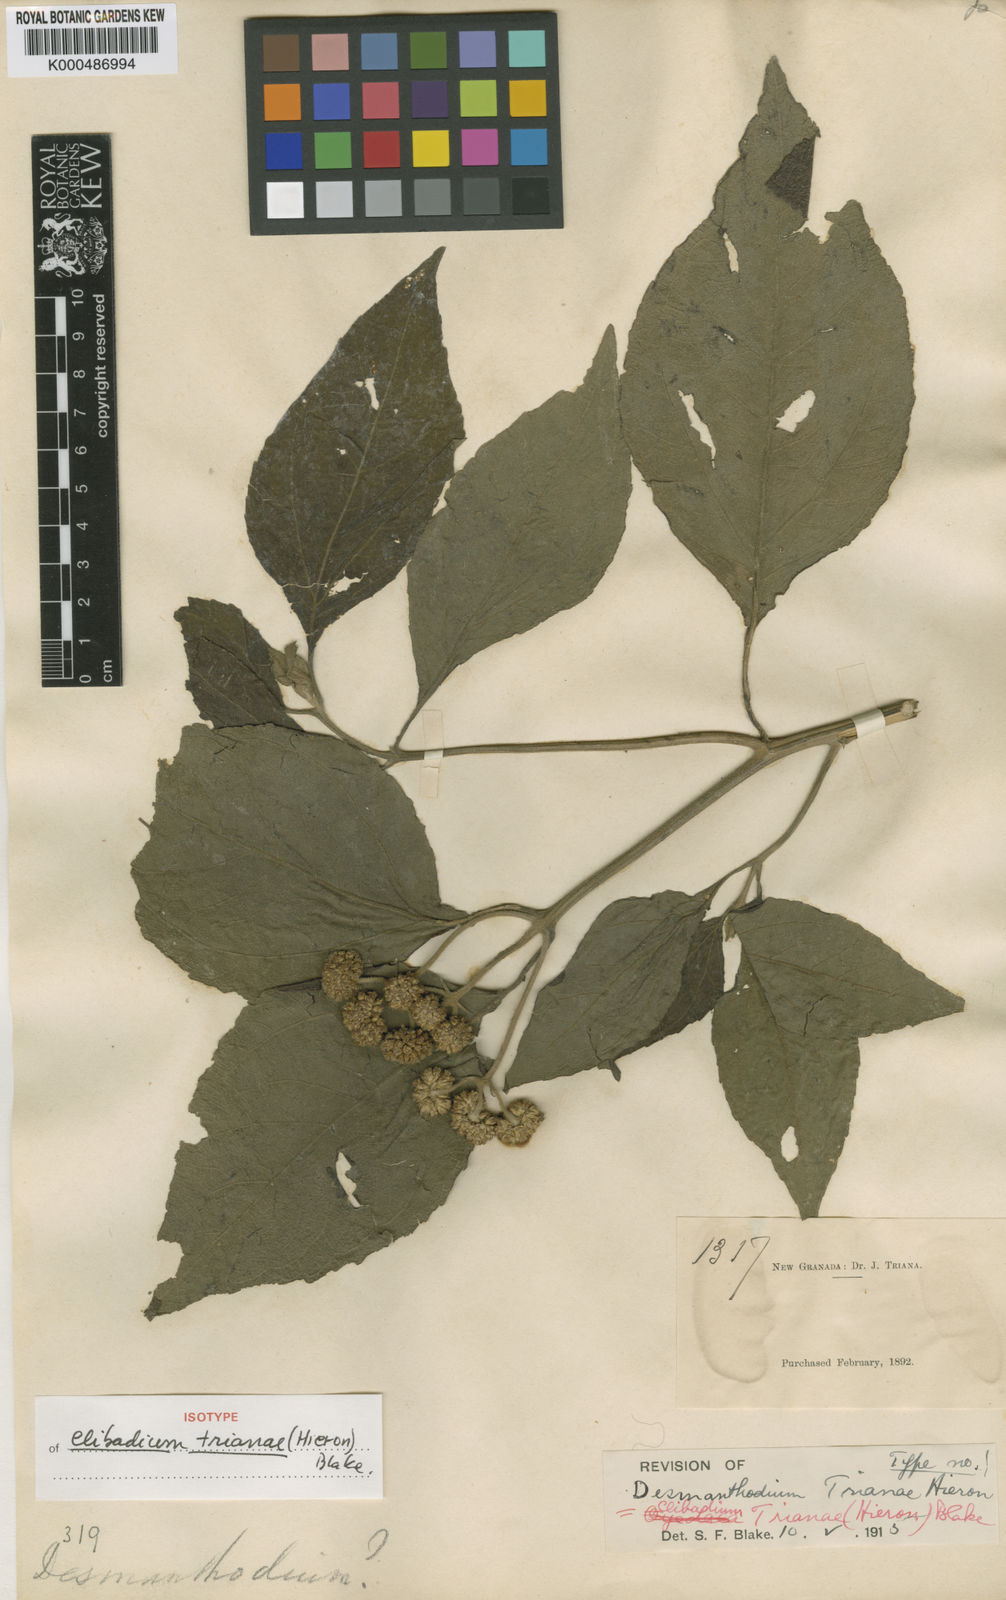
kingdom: Plantae
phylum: Tracheophyta
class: Magnoliopsida
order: Asterales
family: Asteraceae
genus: Clibadium
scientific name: Clibadium trianae
